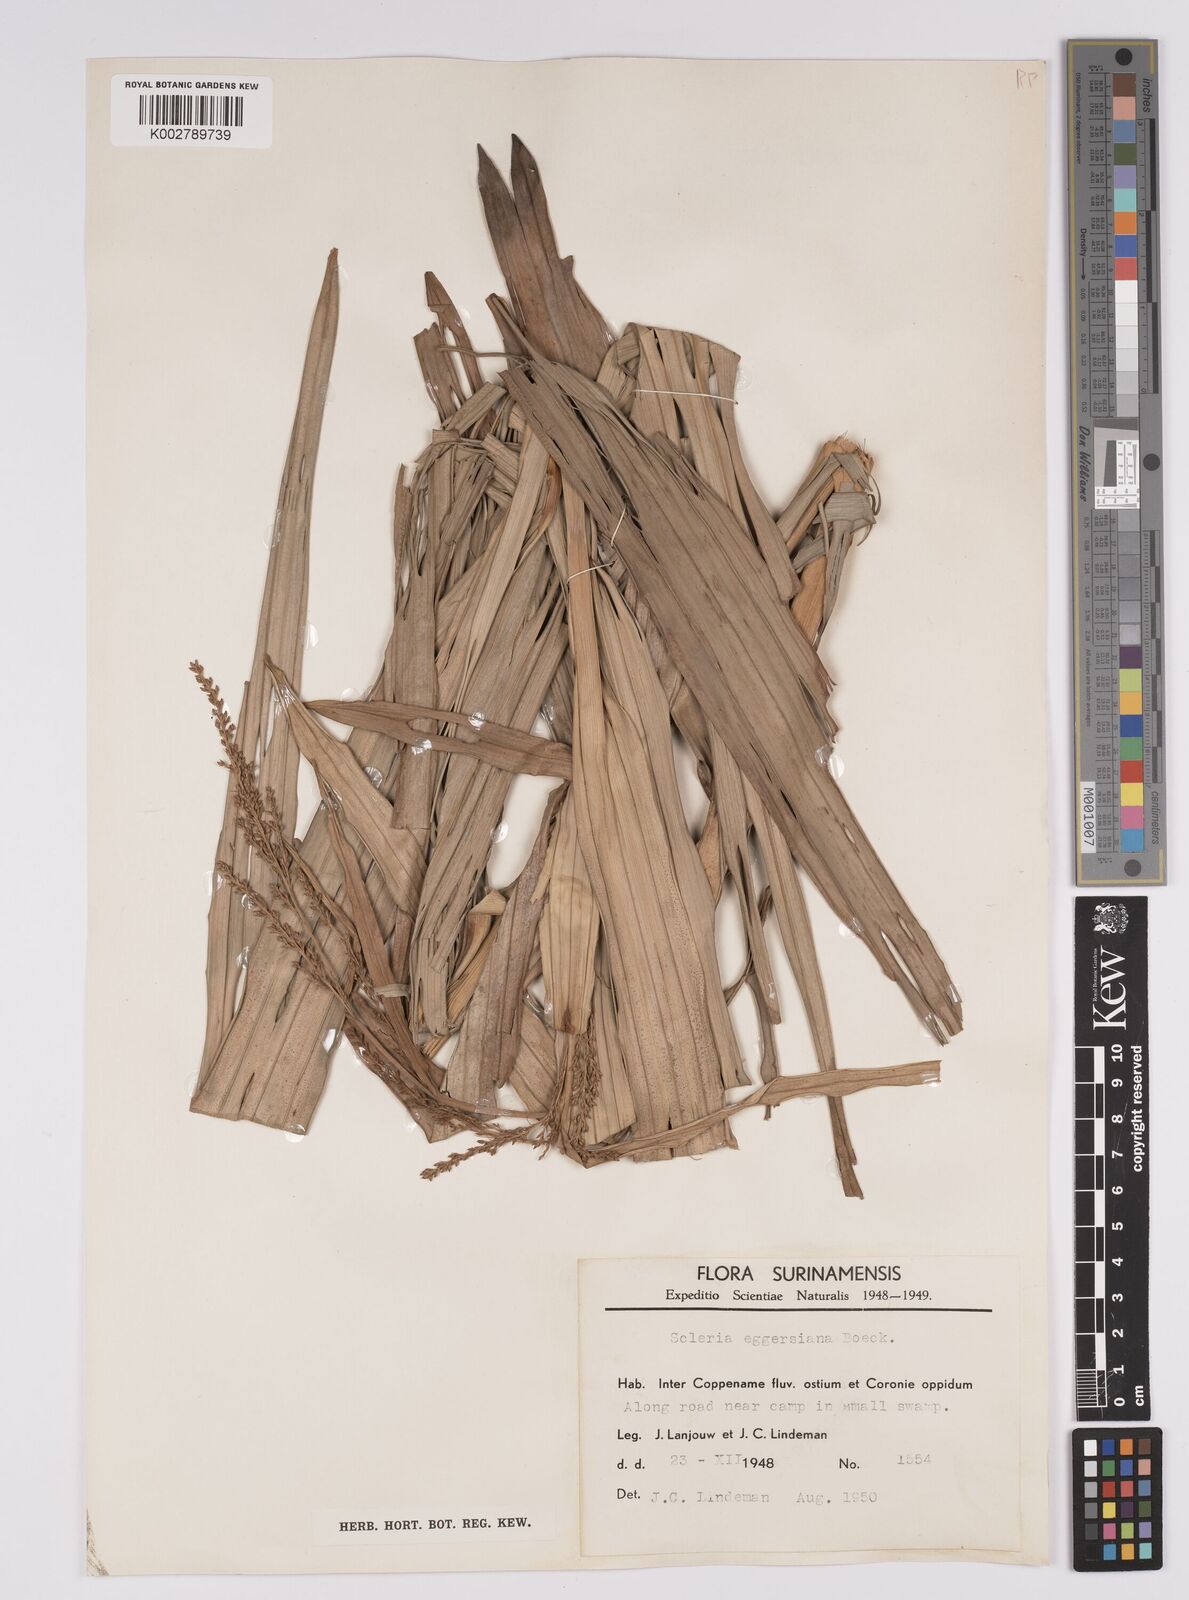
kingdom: Plantae
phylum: Tracheophyta
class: Liliopsida
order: Poales
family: Cyperaceae
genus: Scleria
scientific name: Scleria eggersiana
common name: Eggers' nutrush
